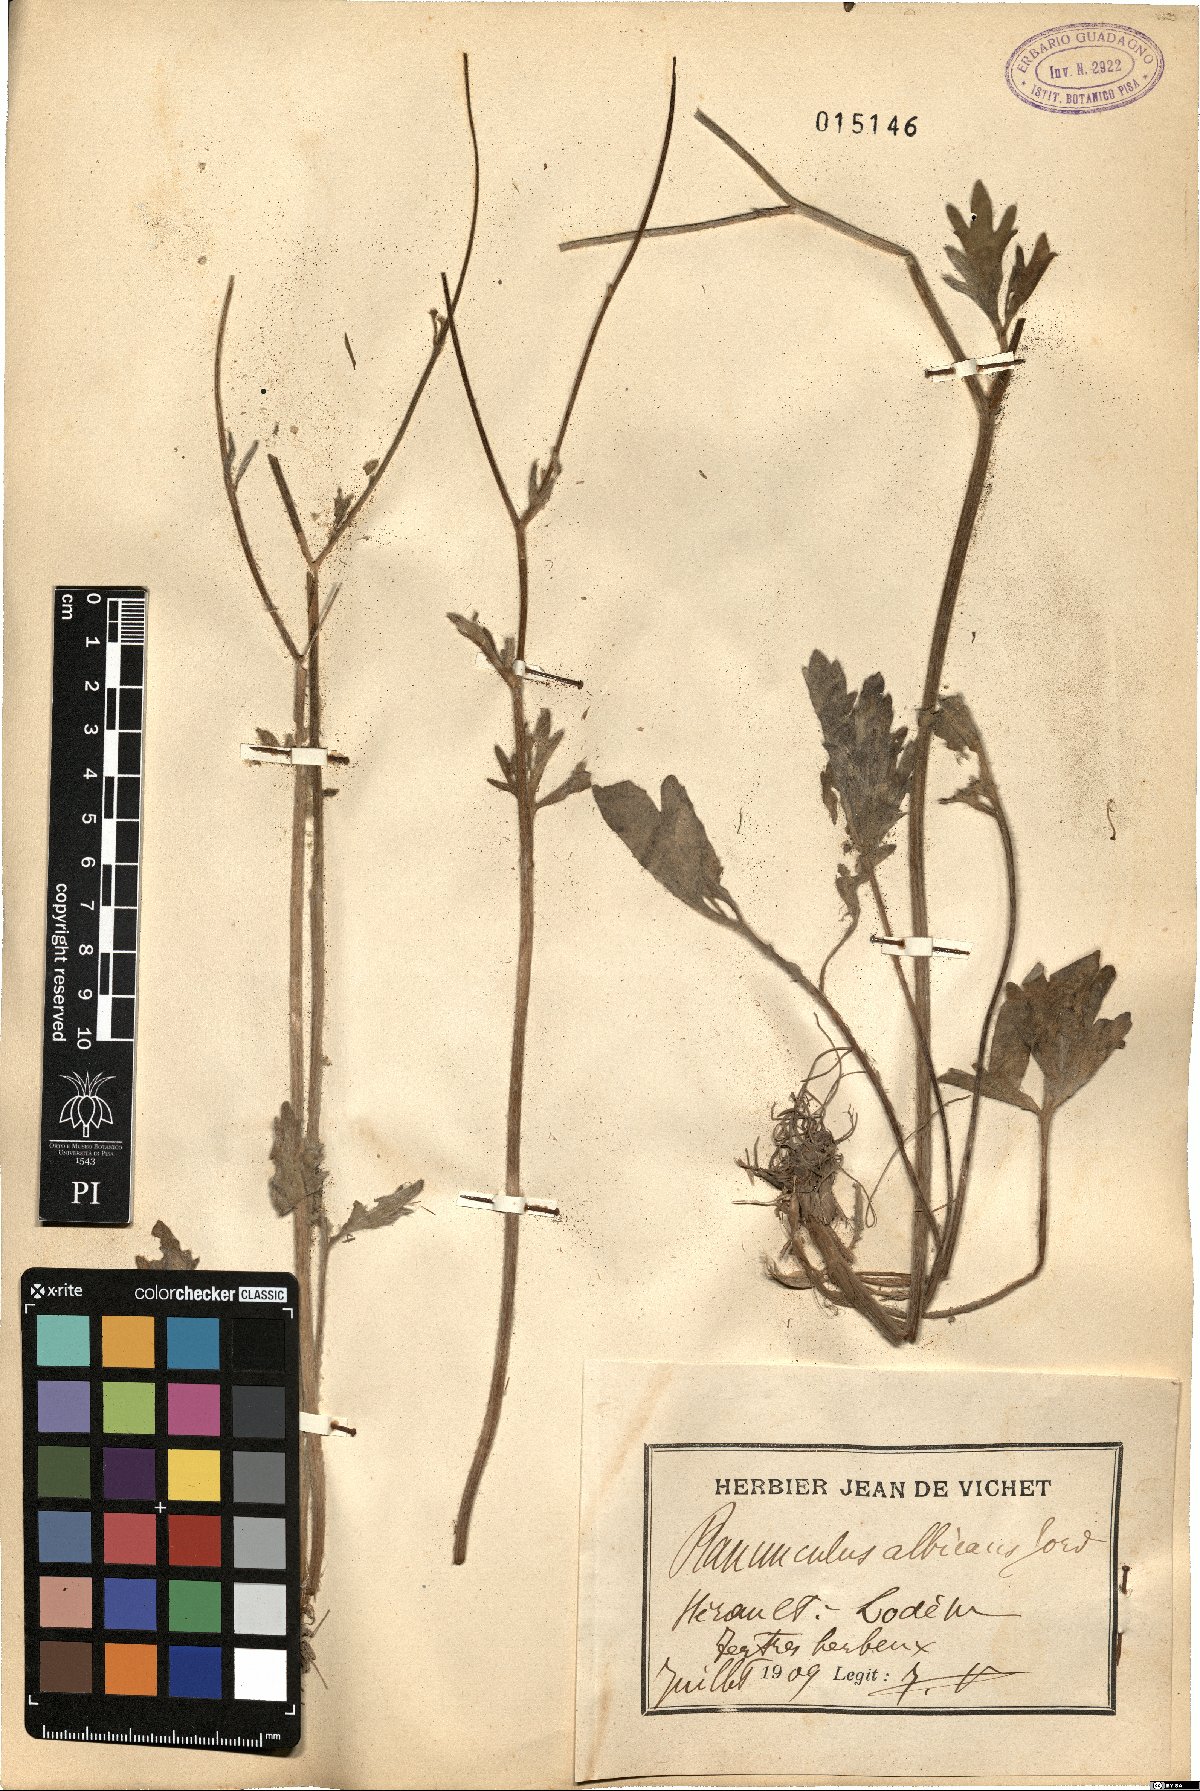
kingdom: Plantae
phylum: Tracheophyta
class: Magnoliopsida
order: Ranunculales
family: Ranunculaceae
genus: Ranunculus
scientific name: Ranunculus monspeliacus
